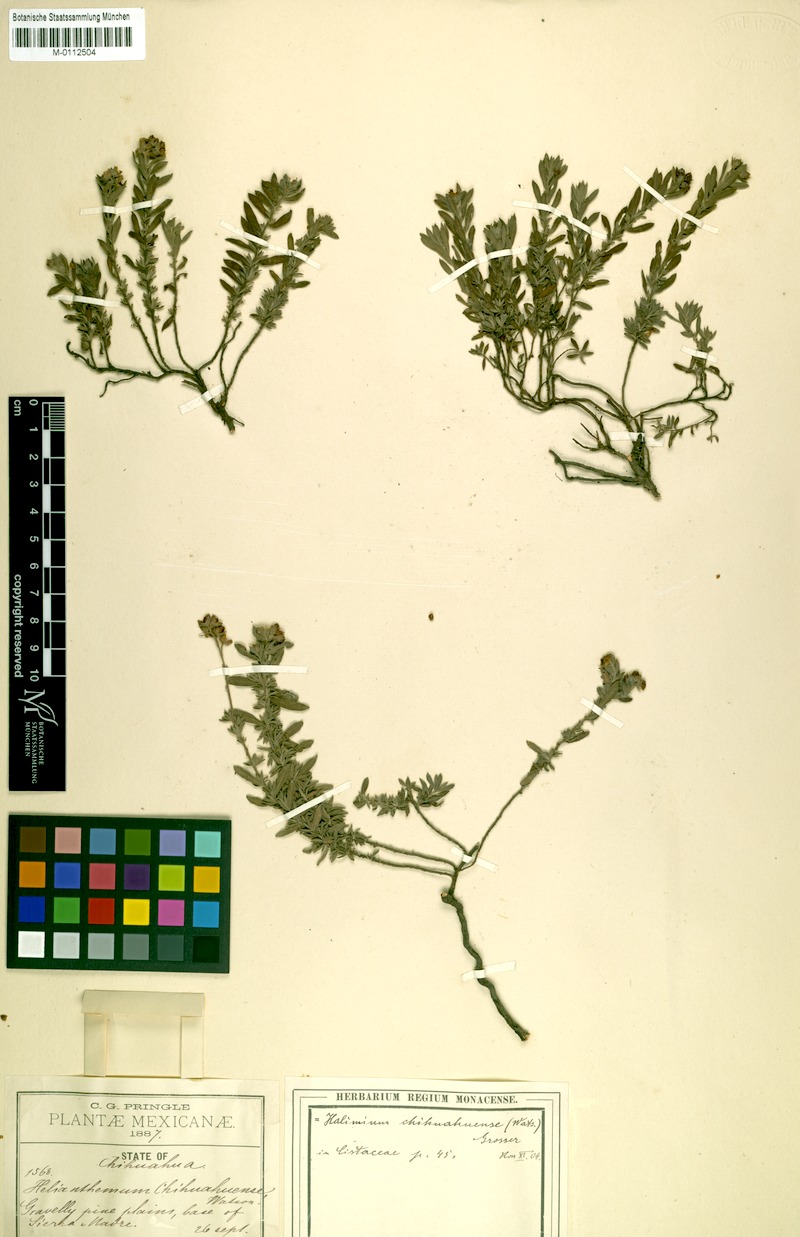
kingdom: Plantae
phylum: Tracheophyta
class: Magnoliopsida
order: Malvales
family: Cistaceae
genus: Crocanthemum
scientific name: Crocanthemum chihuahuense
